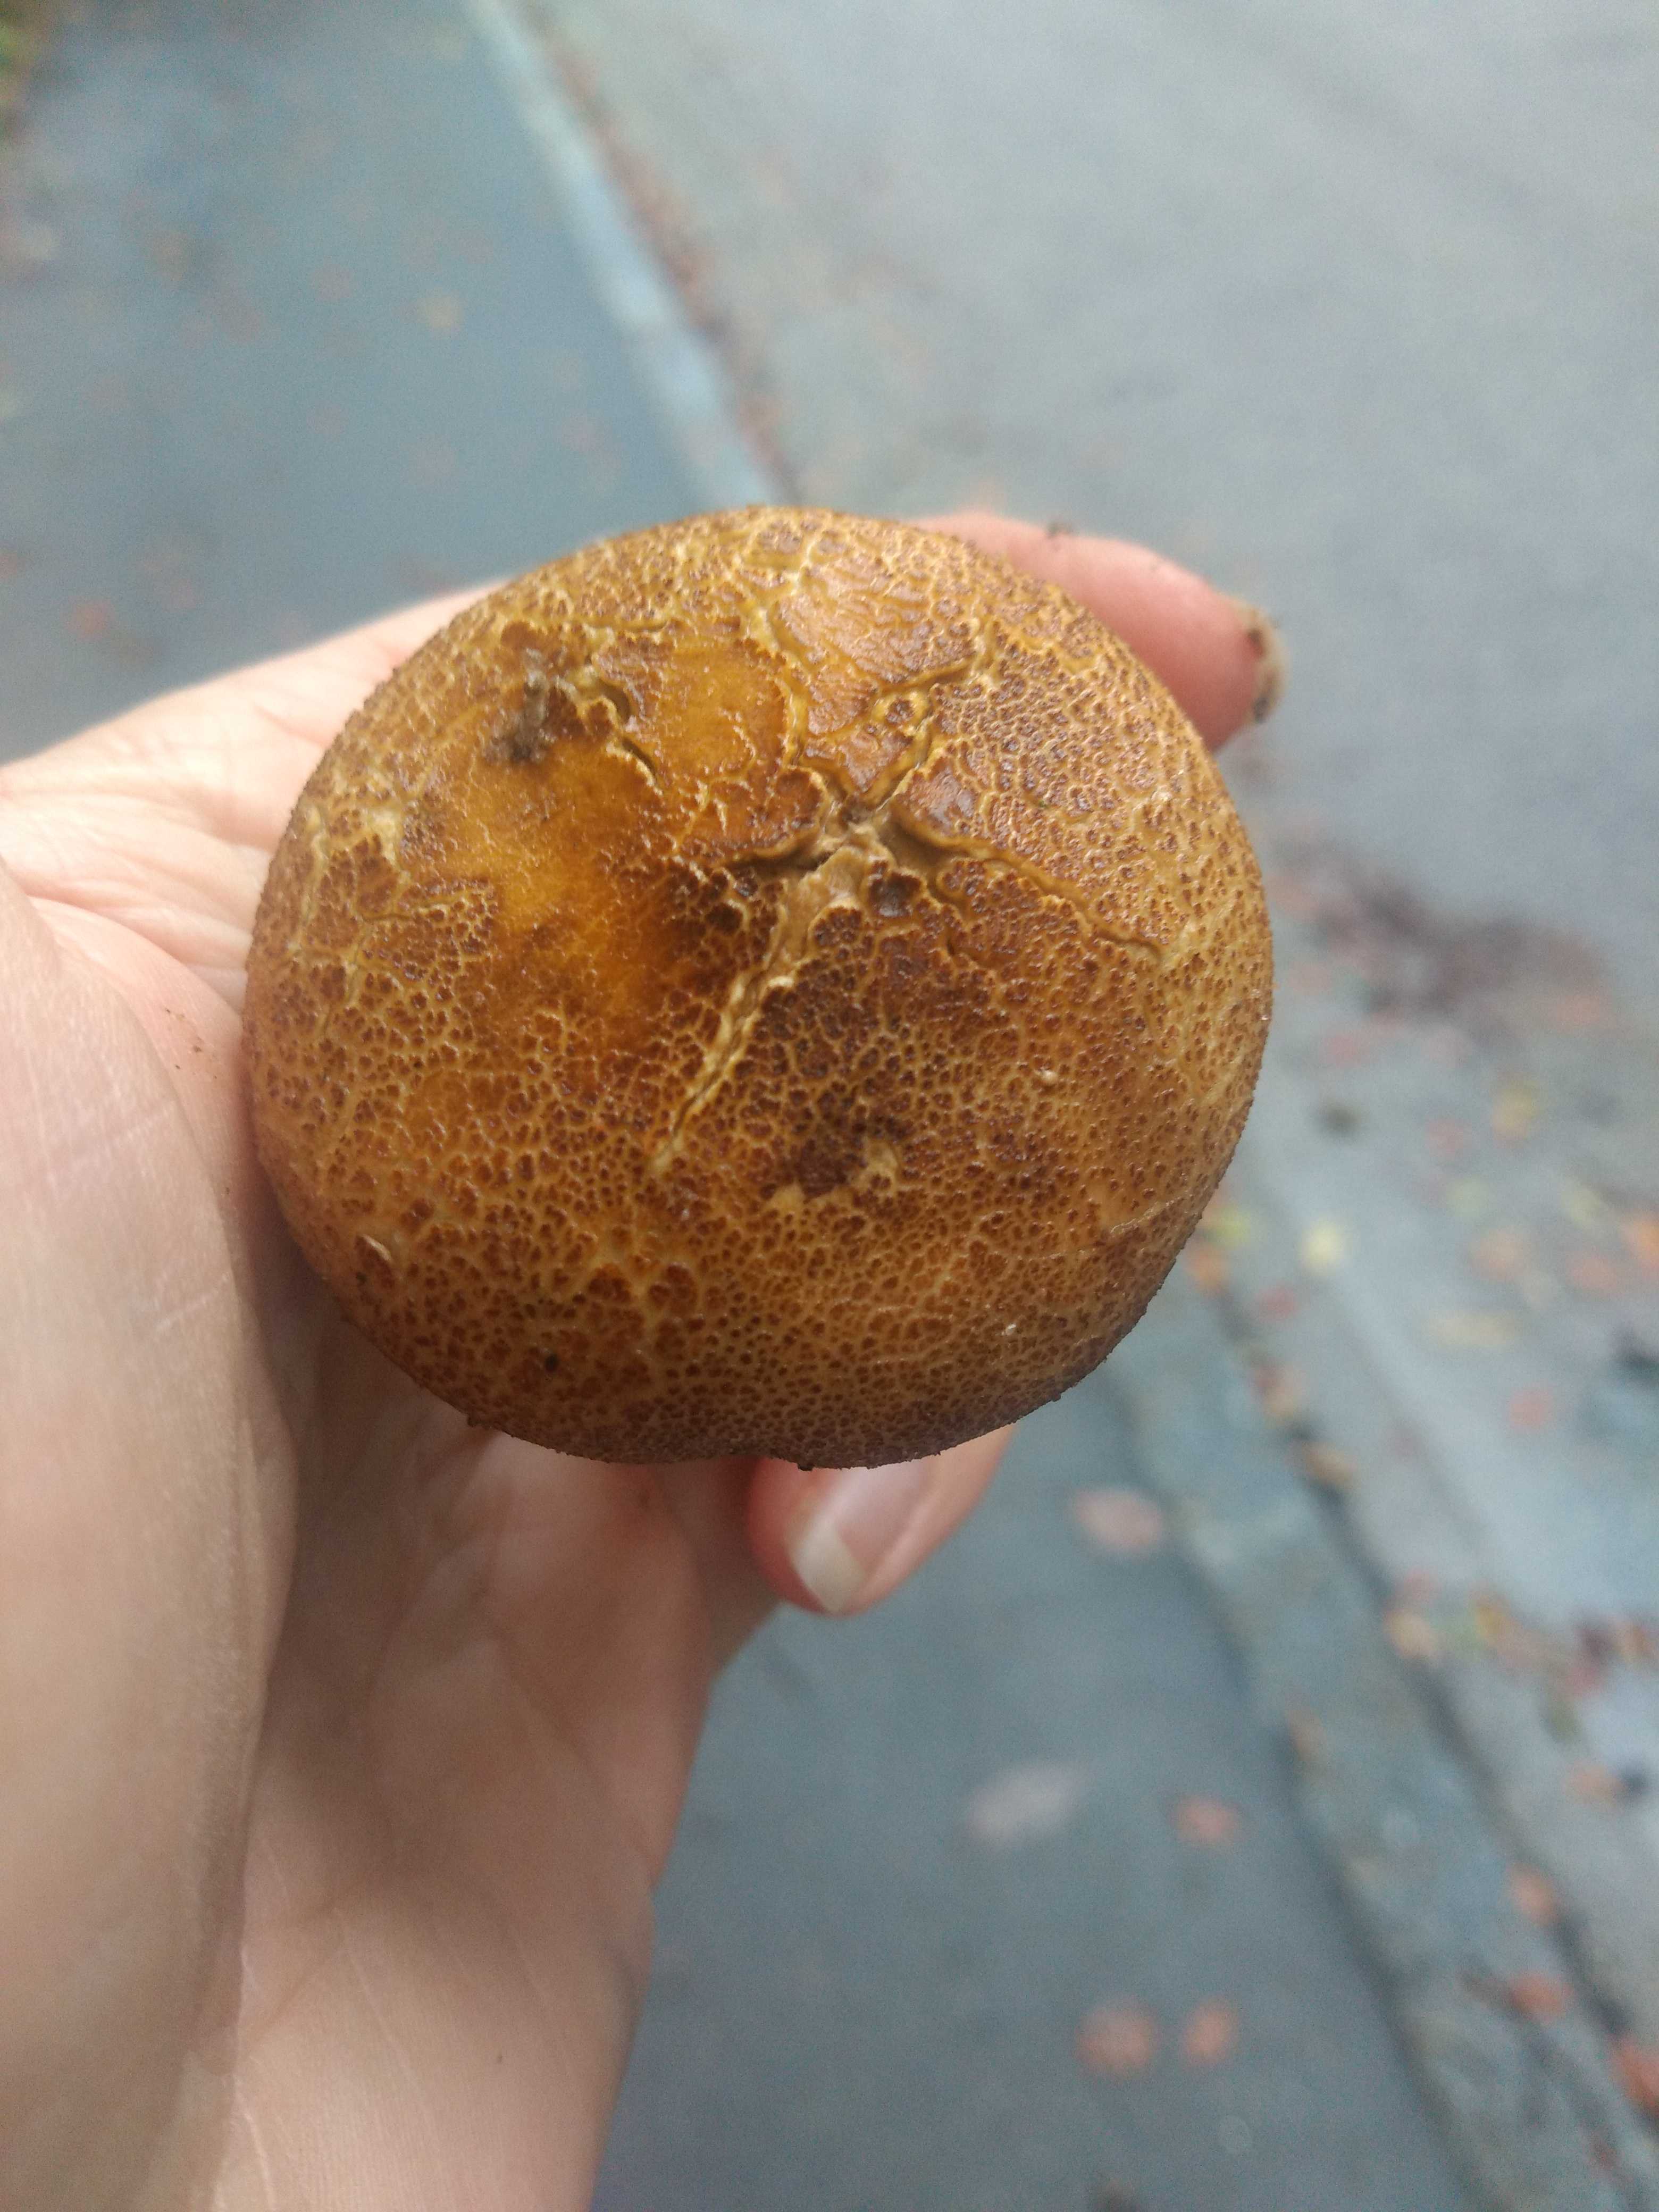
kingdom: Fungi
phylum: Basidiomycota
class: Agaricomycetes
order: Boletales
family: Sclerodermataceae
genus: Scleroderma
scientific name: Scleroderma verrucosum
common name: stilket bruskbold
